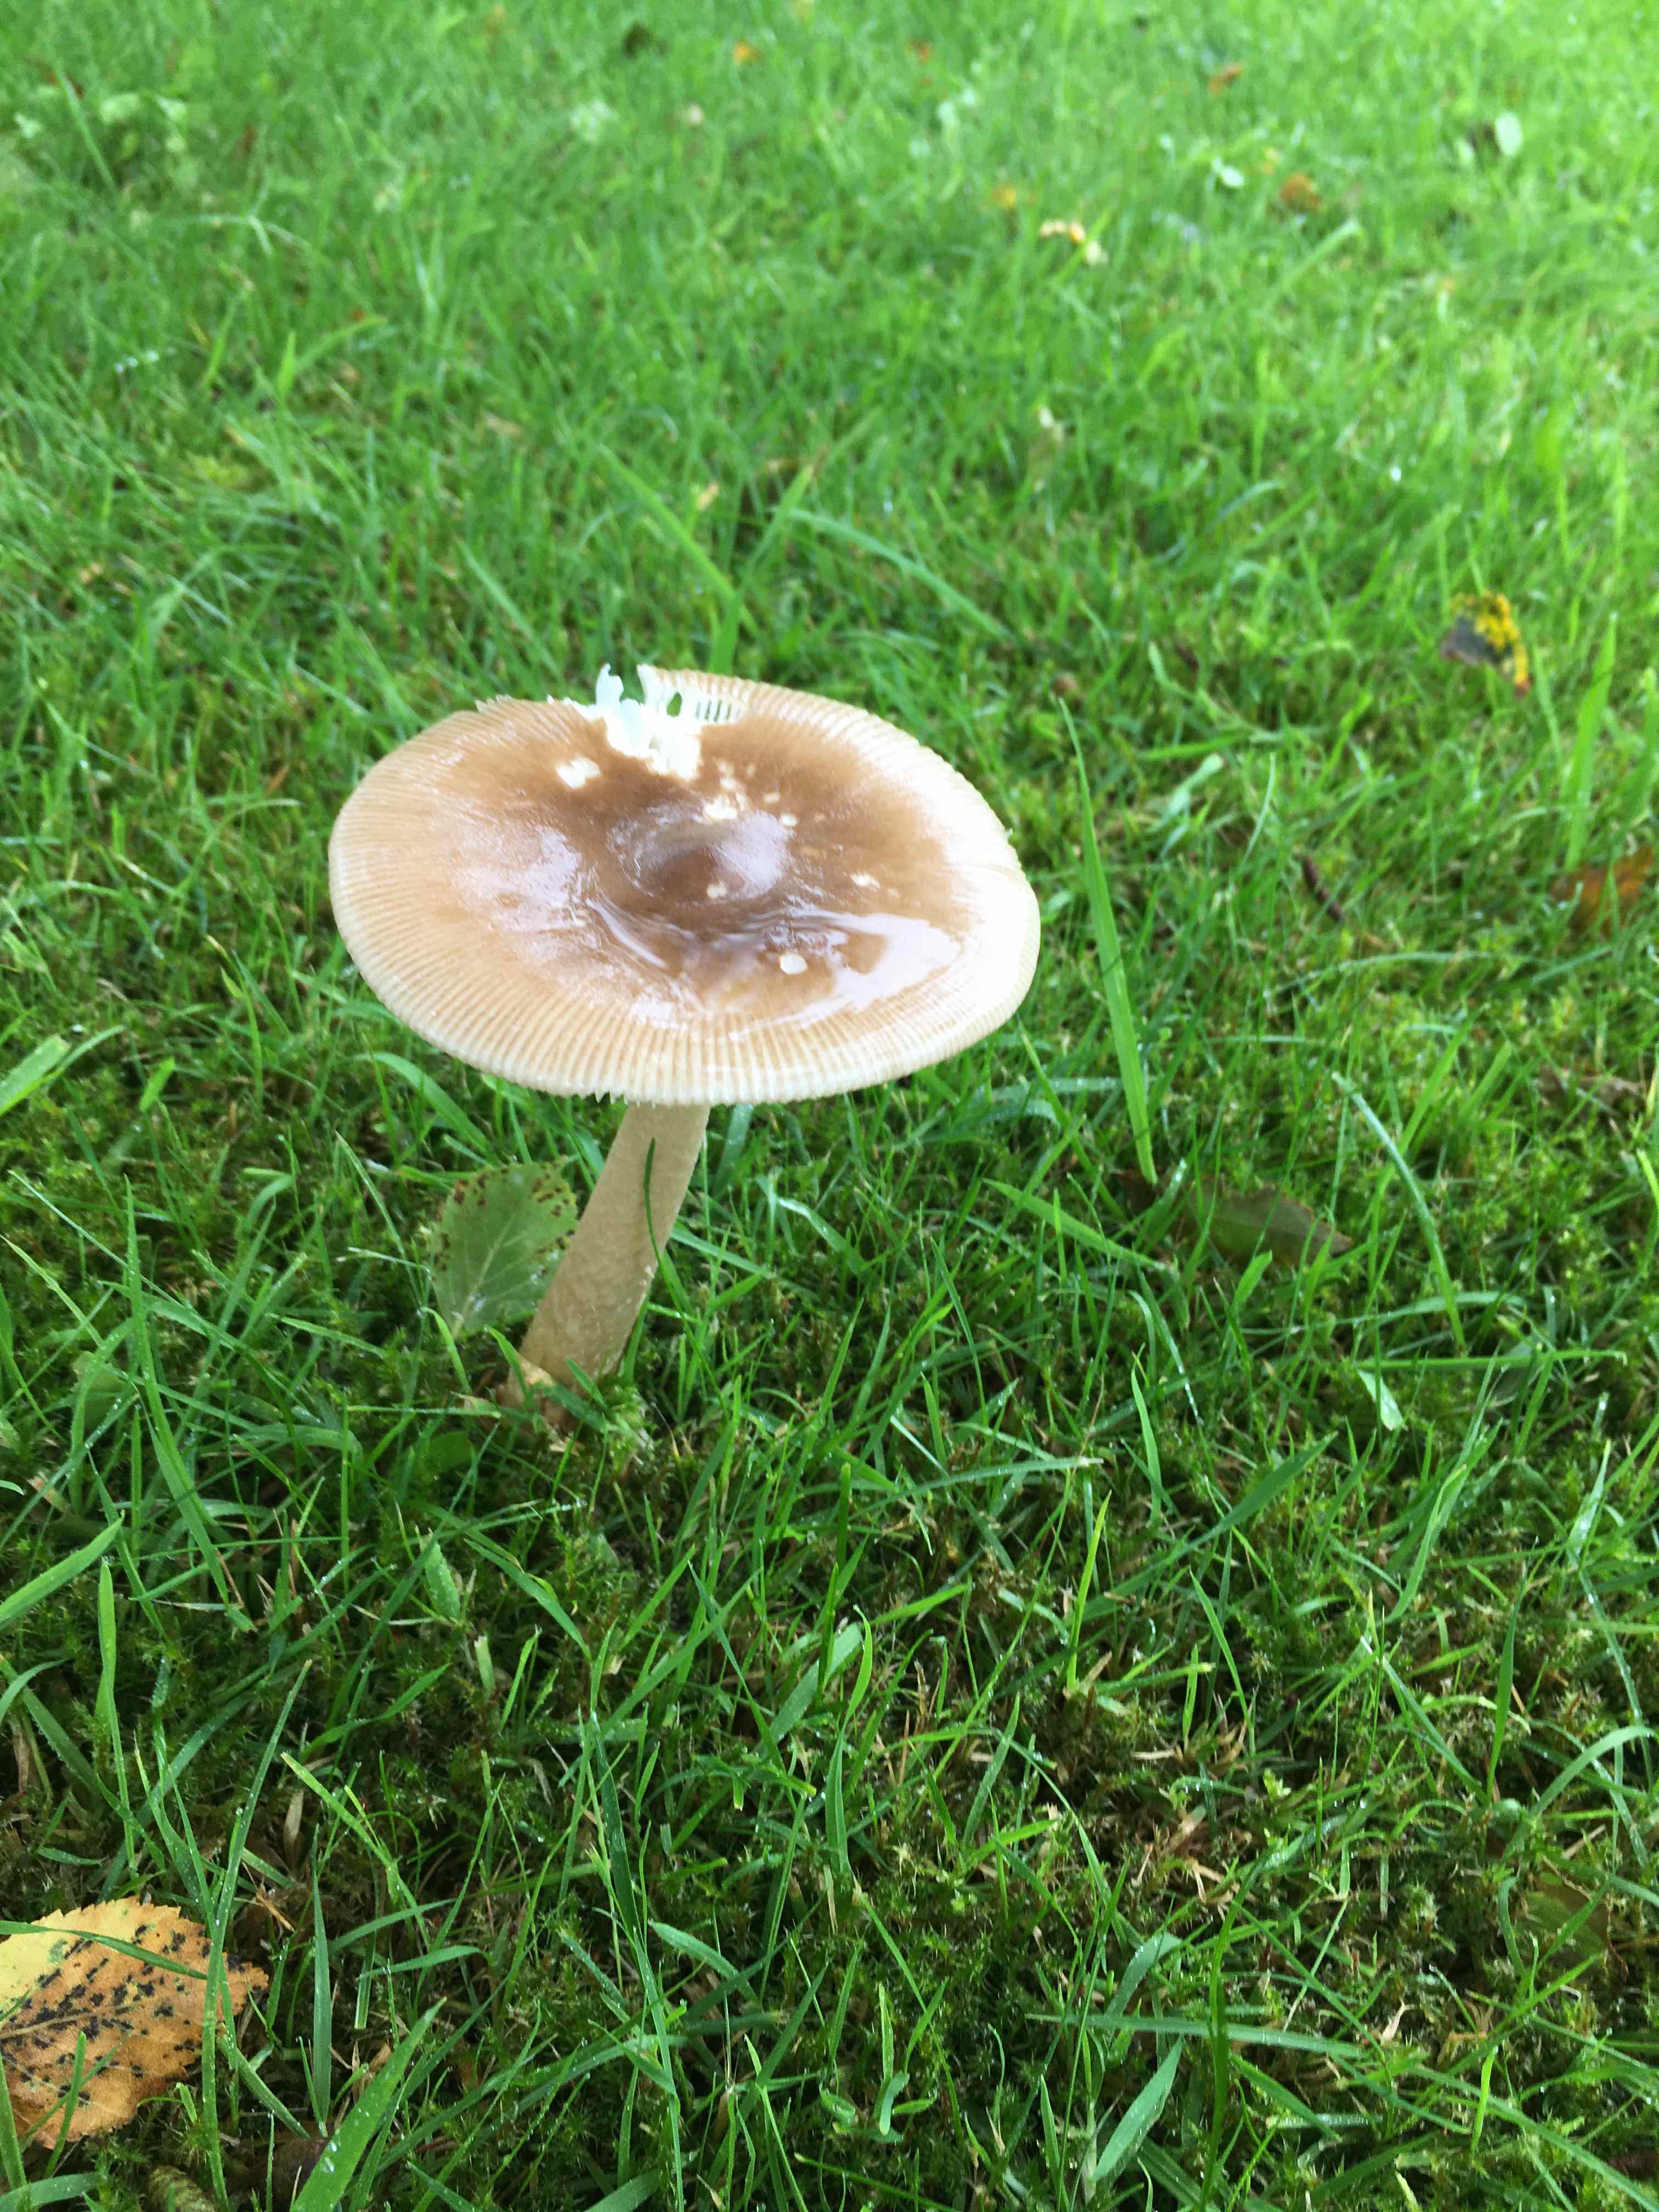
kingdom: Fungi
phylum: Basidiomycota
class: Agaricomycetes
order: Agaricales
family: Amanitaceae
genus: Amanita
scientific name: Amanita fulva
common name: brun kam-fluesvamp
